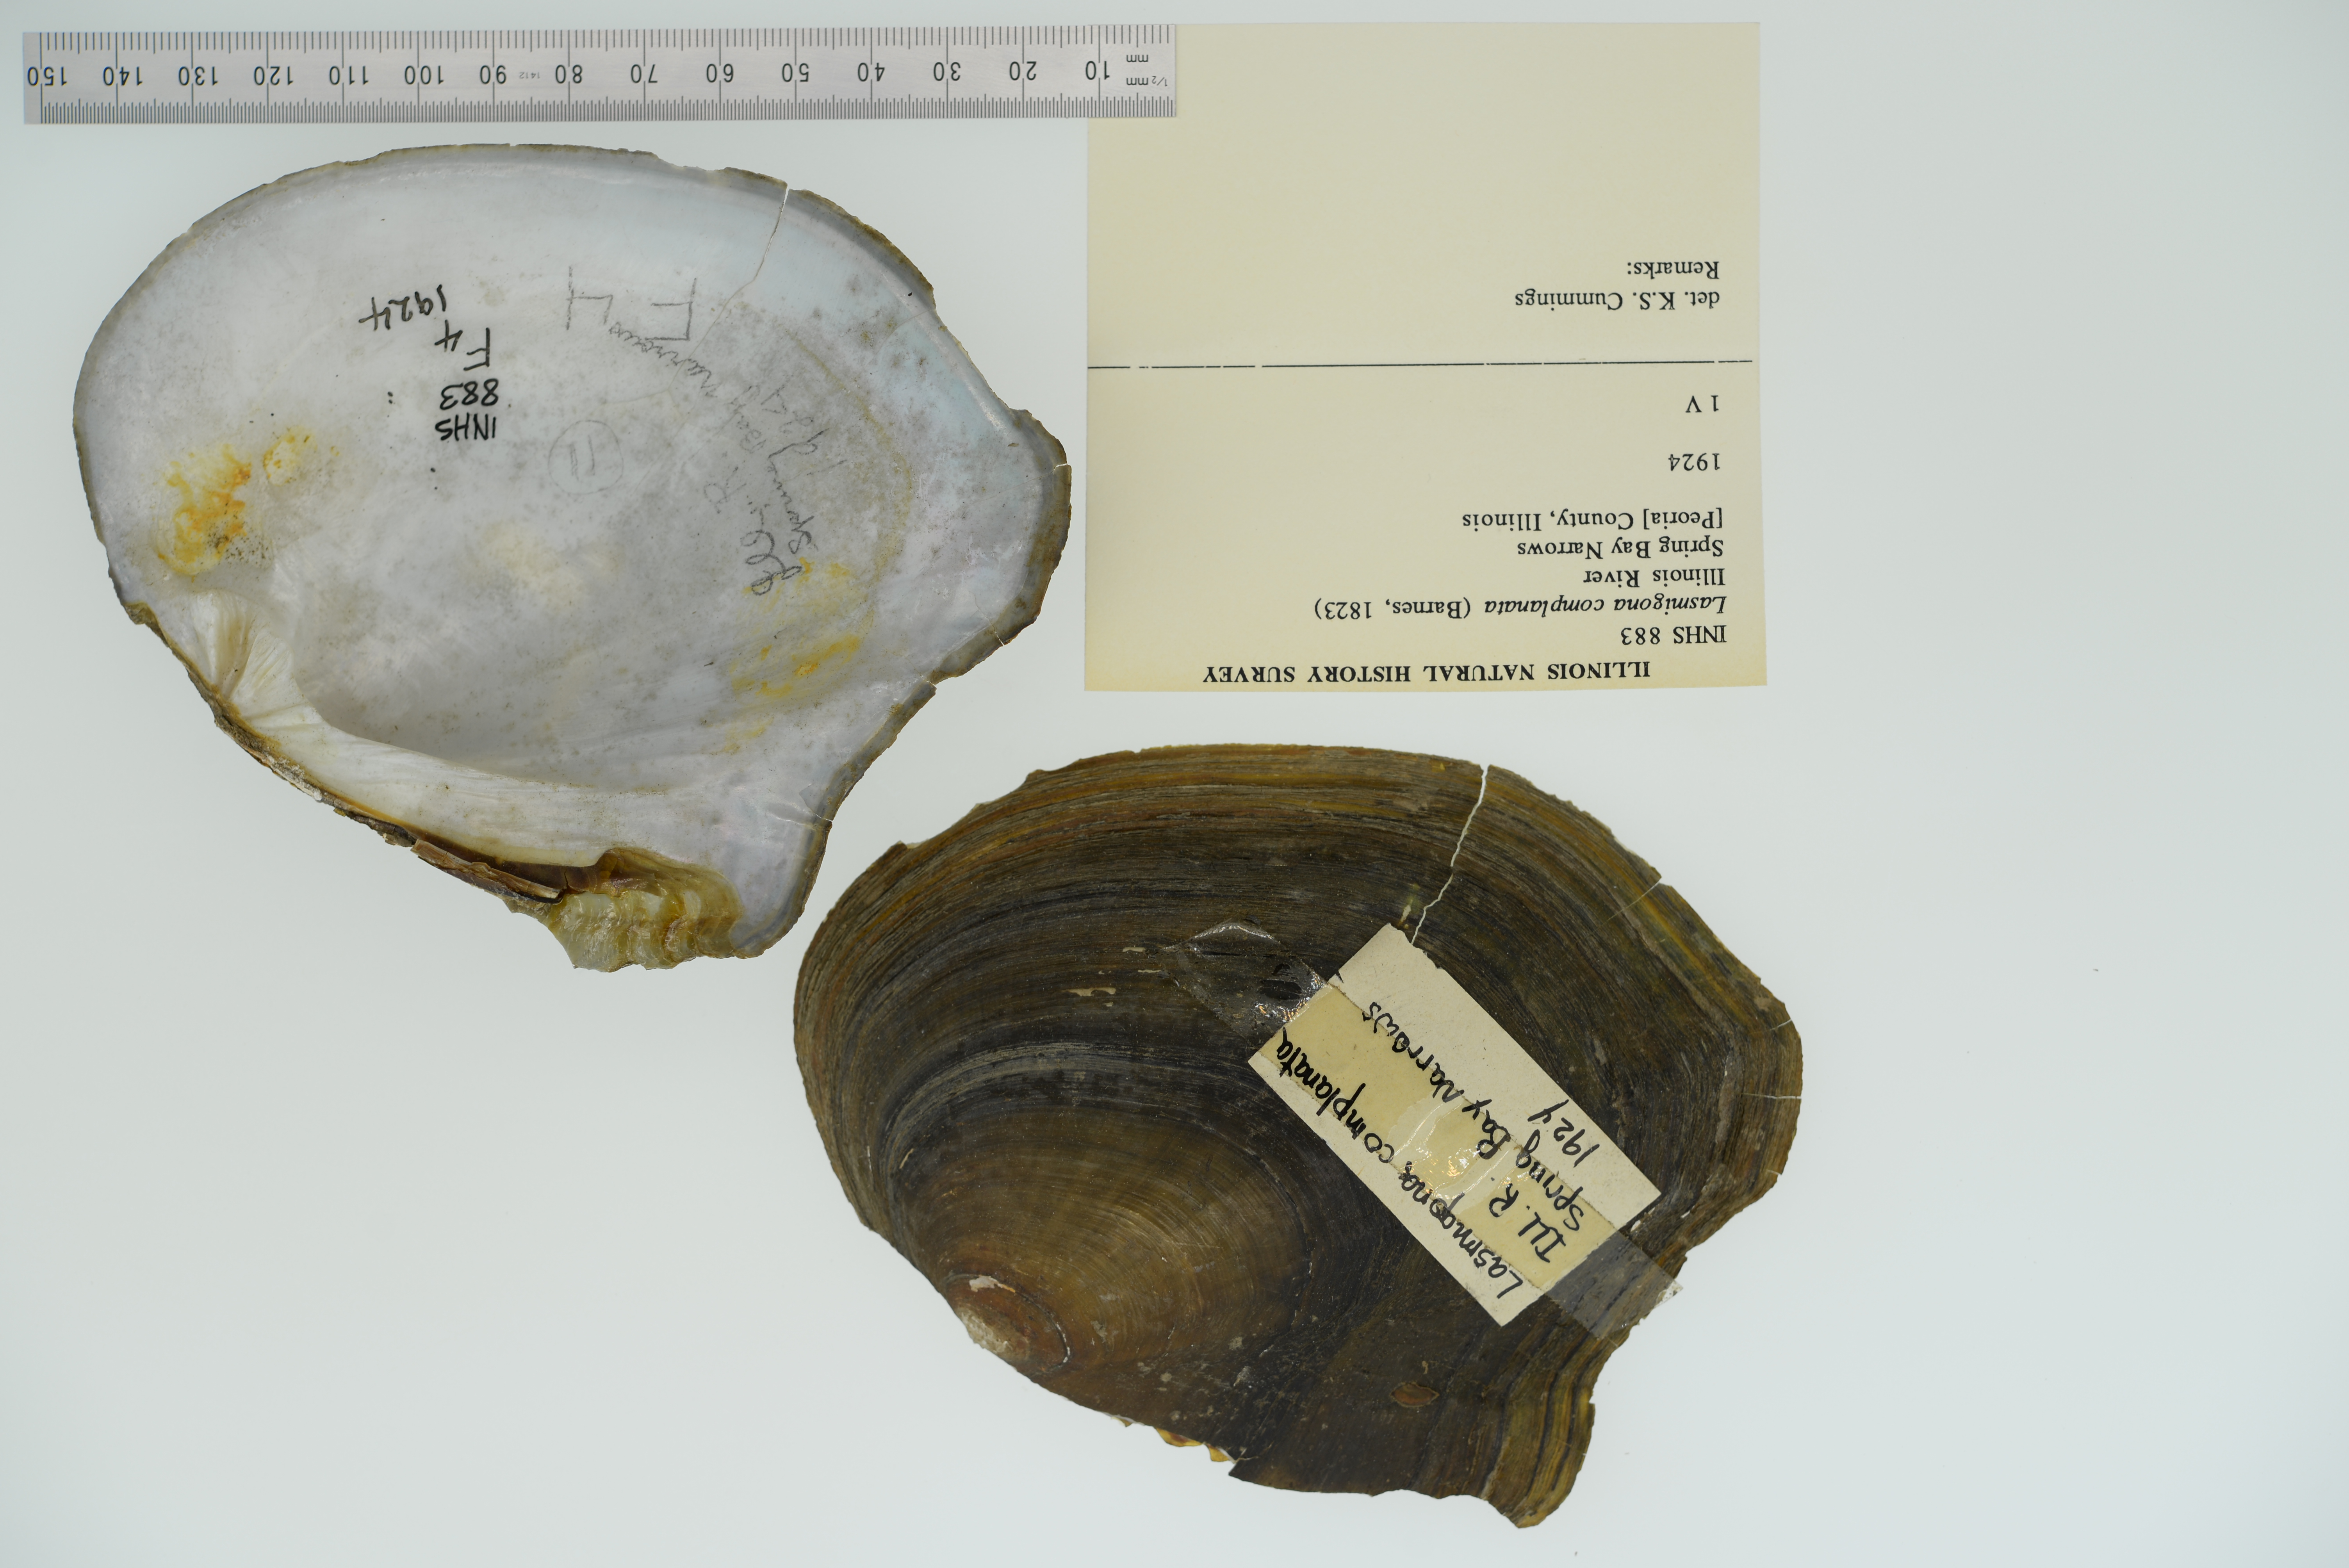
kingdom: Animalia
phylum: Mollusca
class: Bivalvia
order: Unionida
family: Unionidae
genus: Lasmigona
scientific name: Lasmigona complanata
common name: White heelsplitter
